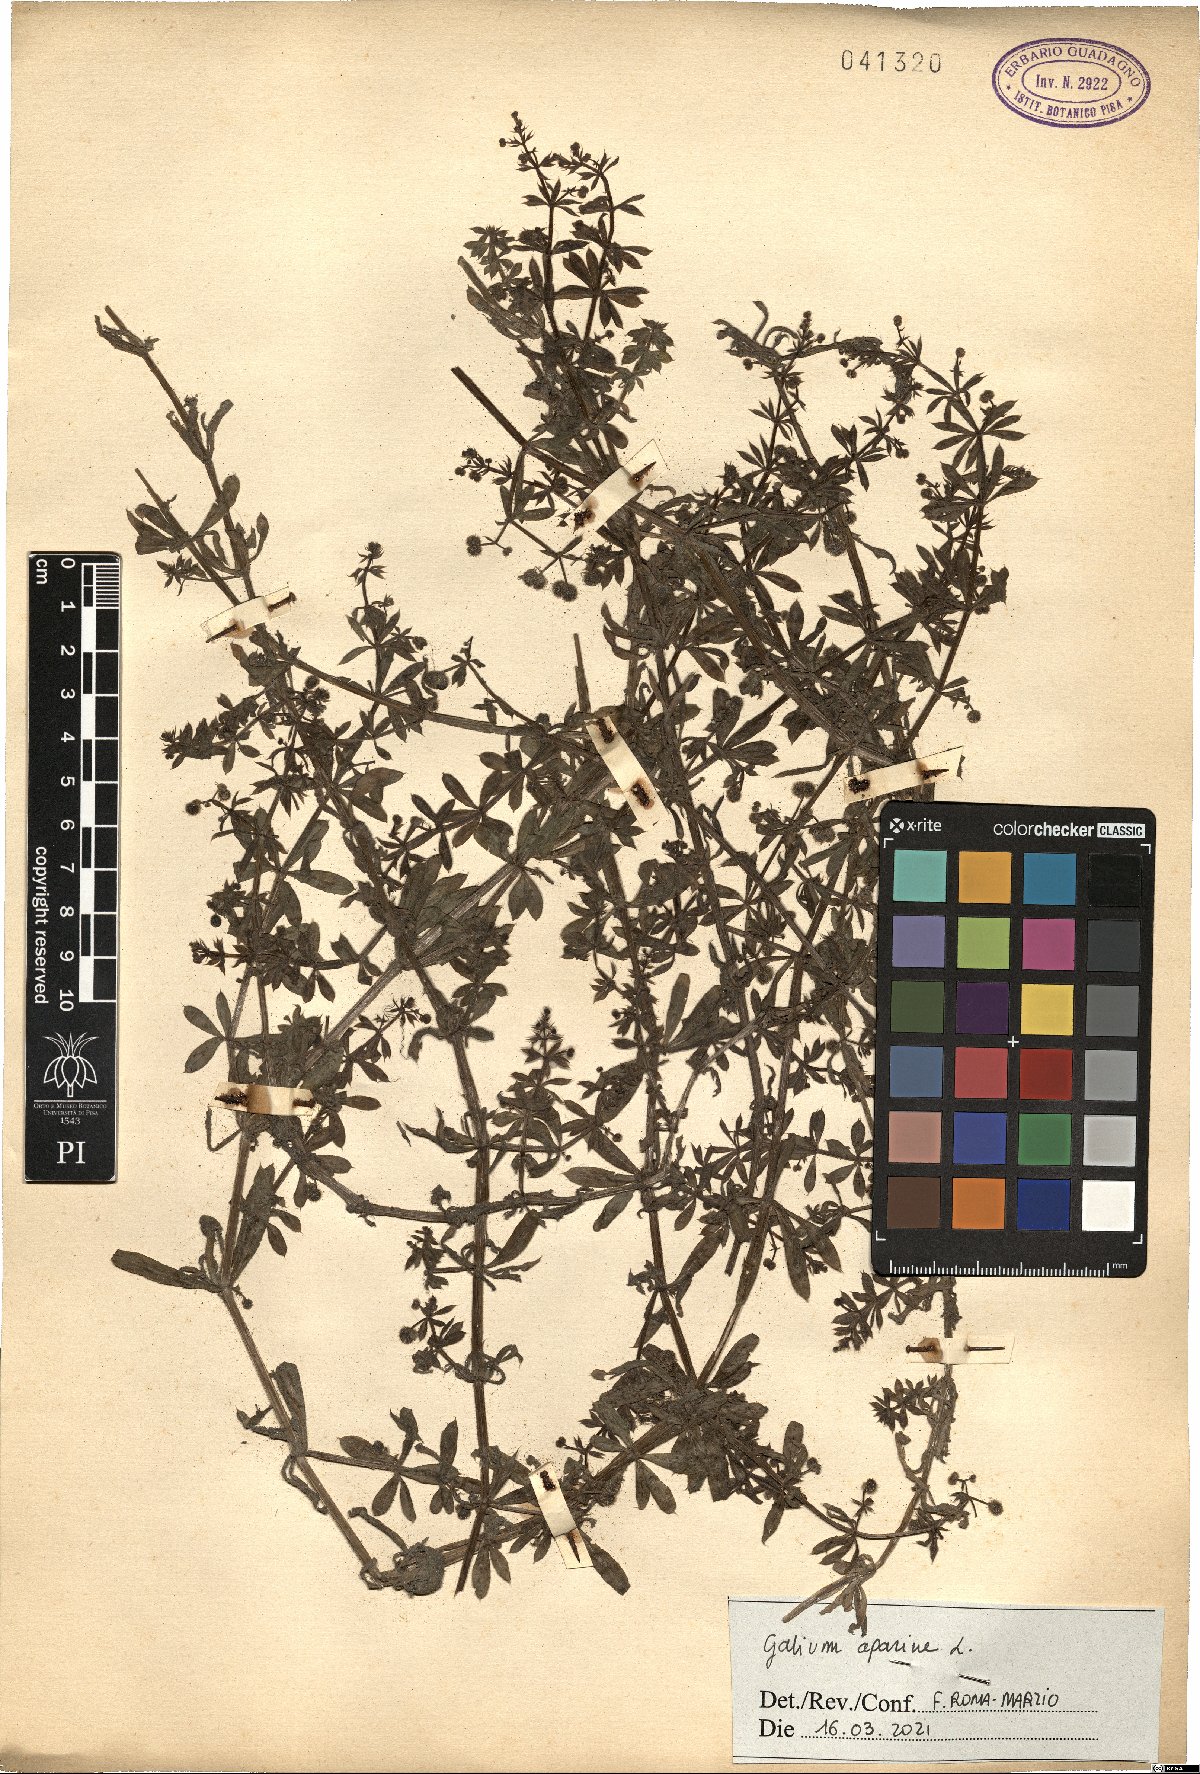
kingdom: Plantae
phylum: Tracheophyta
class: Magnoliopsida
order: Gentianales
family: Rubiaceae
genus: Galium
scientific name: Galium aparine
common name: Cleavers
